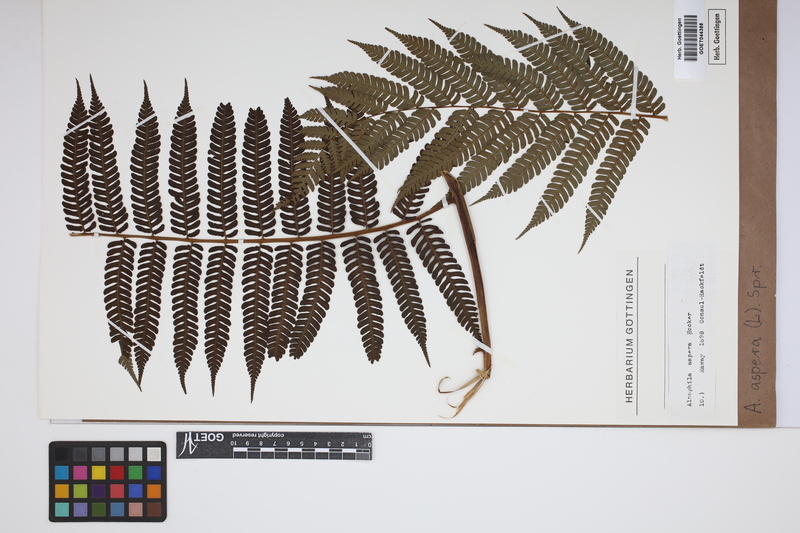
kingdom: Plantae
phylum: Tracheophyta
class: Polypodiopsida
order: Cyatheales
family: Cyatheaceae
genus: Cyathea
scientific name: Cyathea aspera
